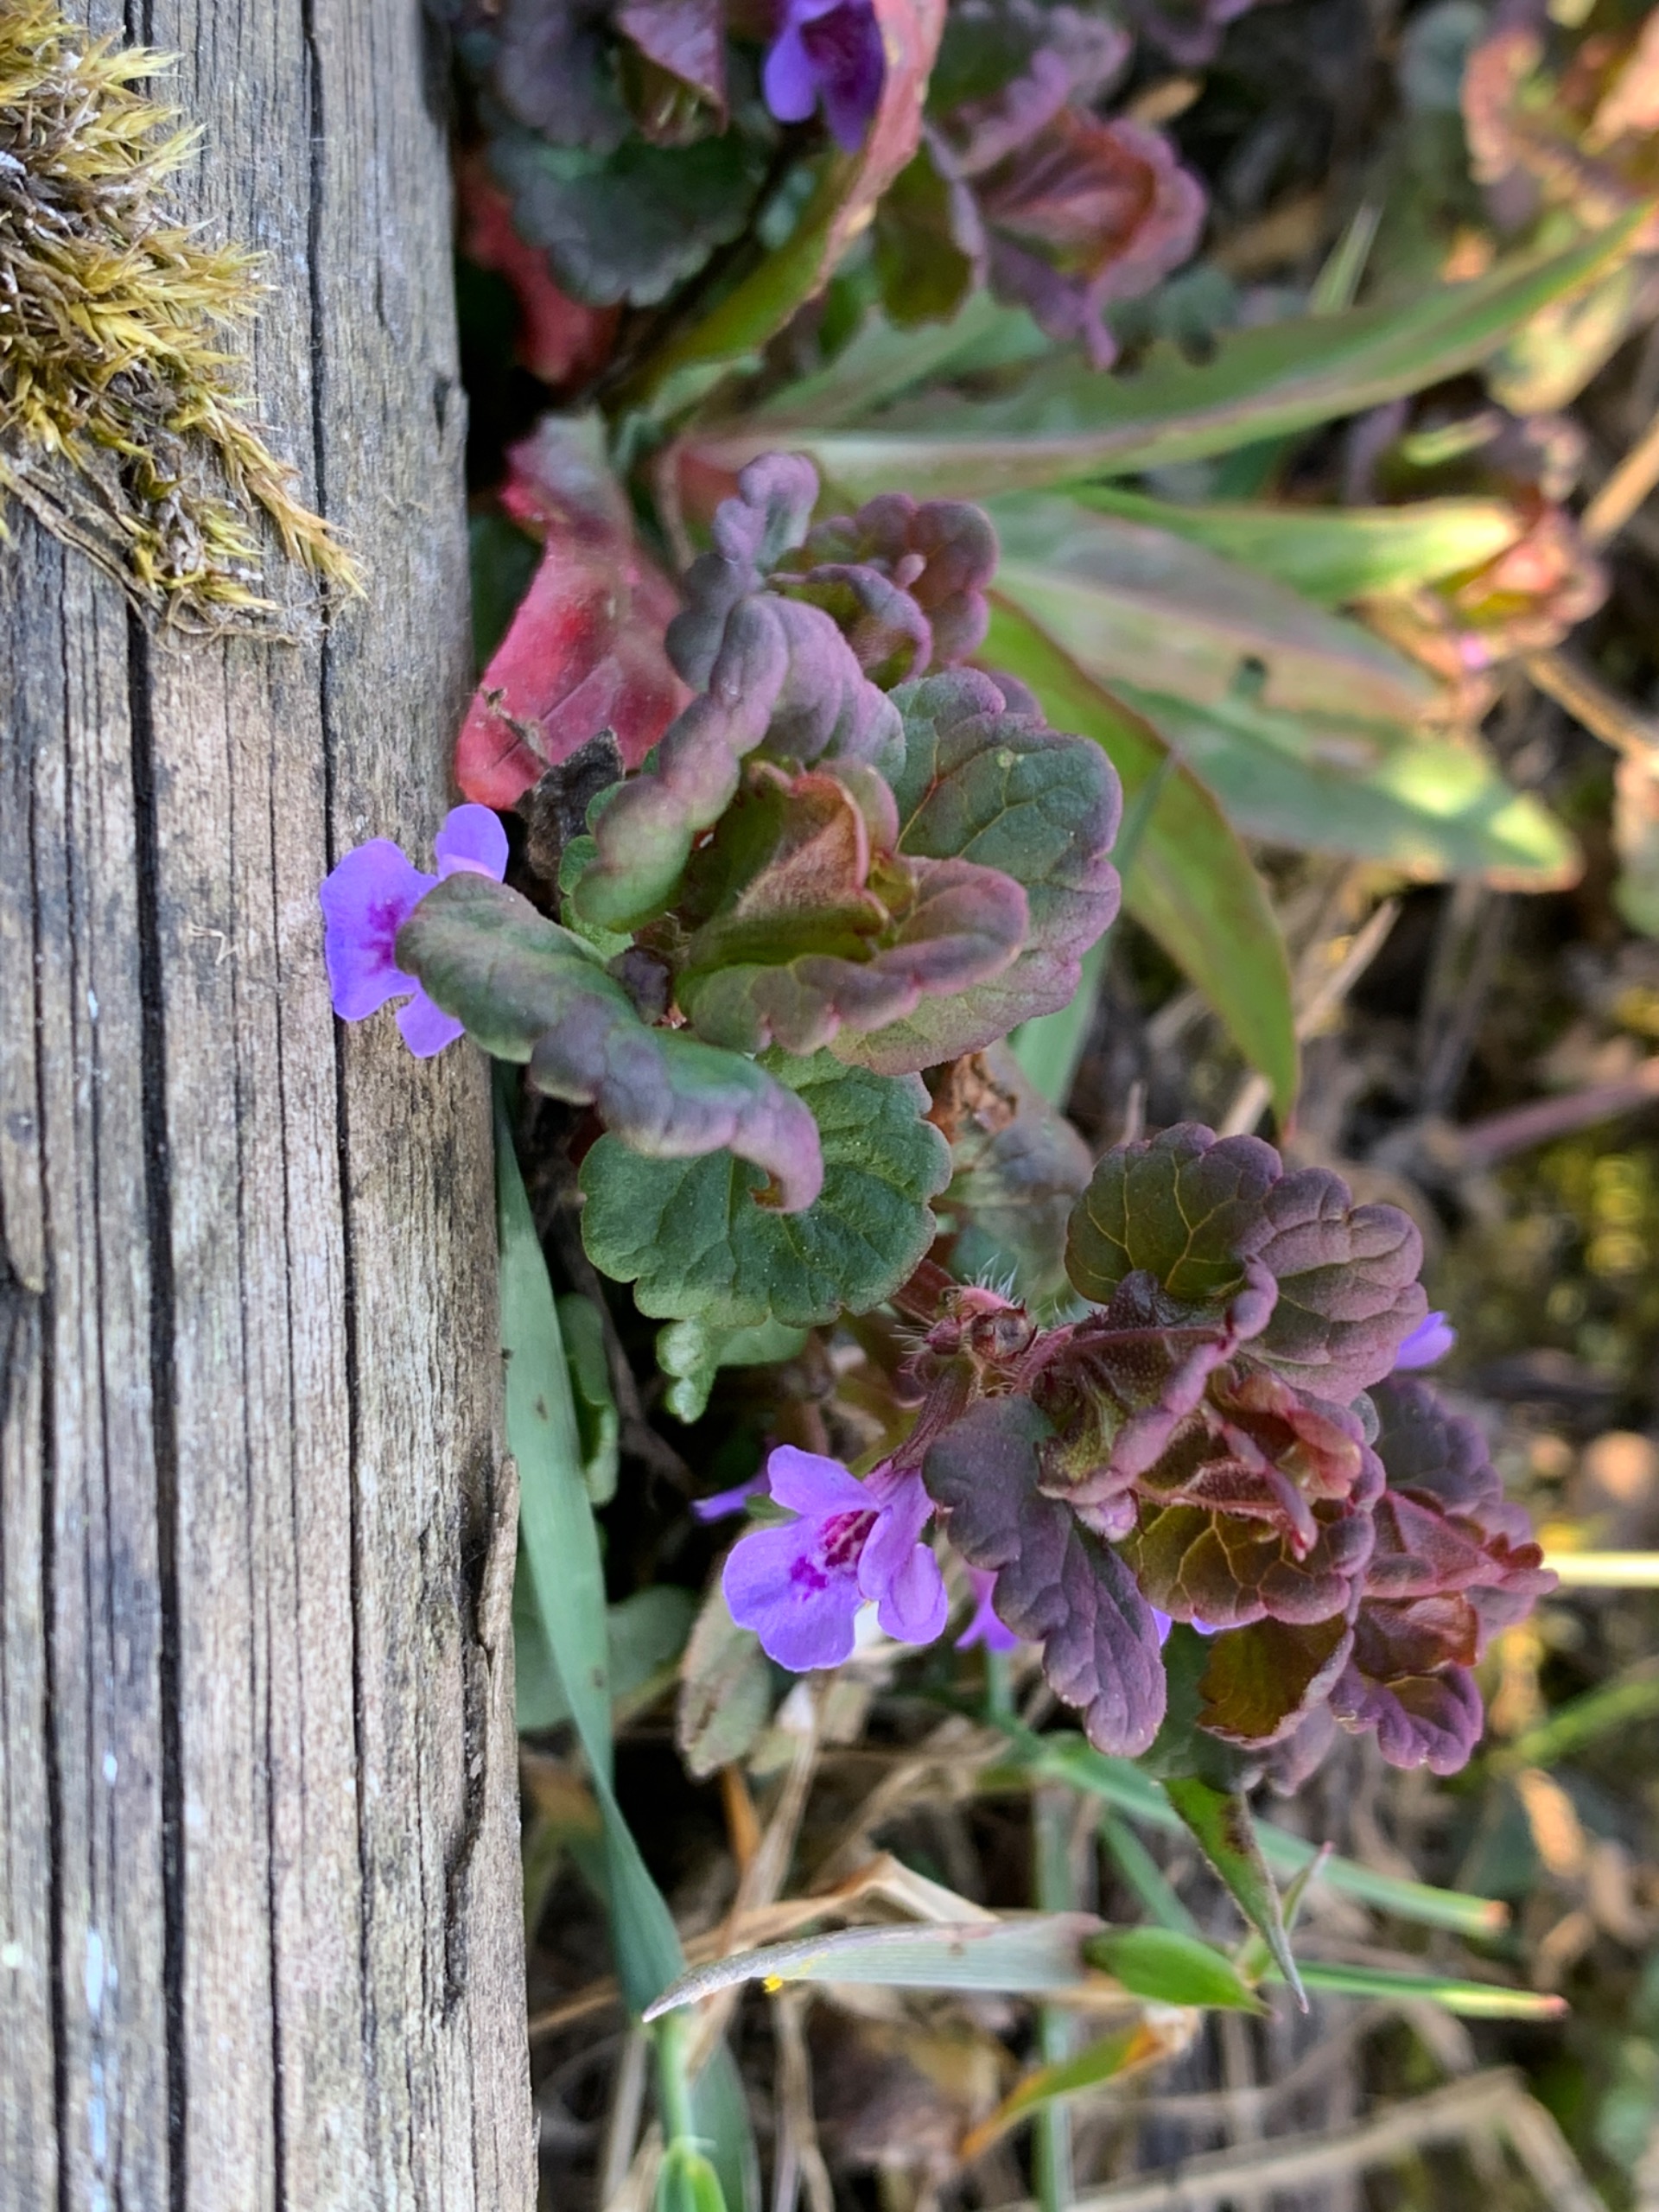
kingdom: Plantae
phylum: Tracheophyta
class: Magnoliopsida
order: Lamiales
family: Lamiaceae
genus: Glechoma
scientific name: Glechoma hederacea
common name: Korsknap
